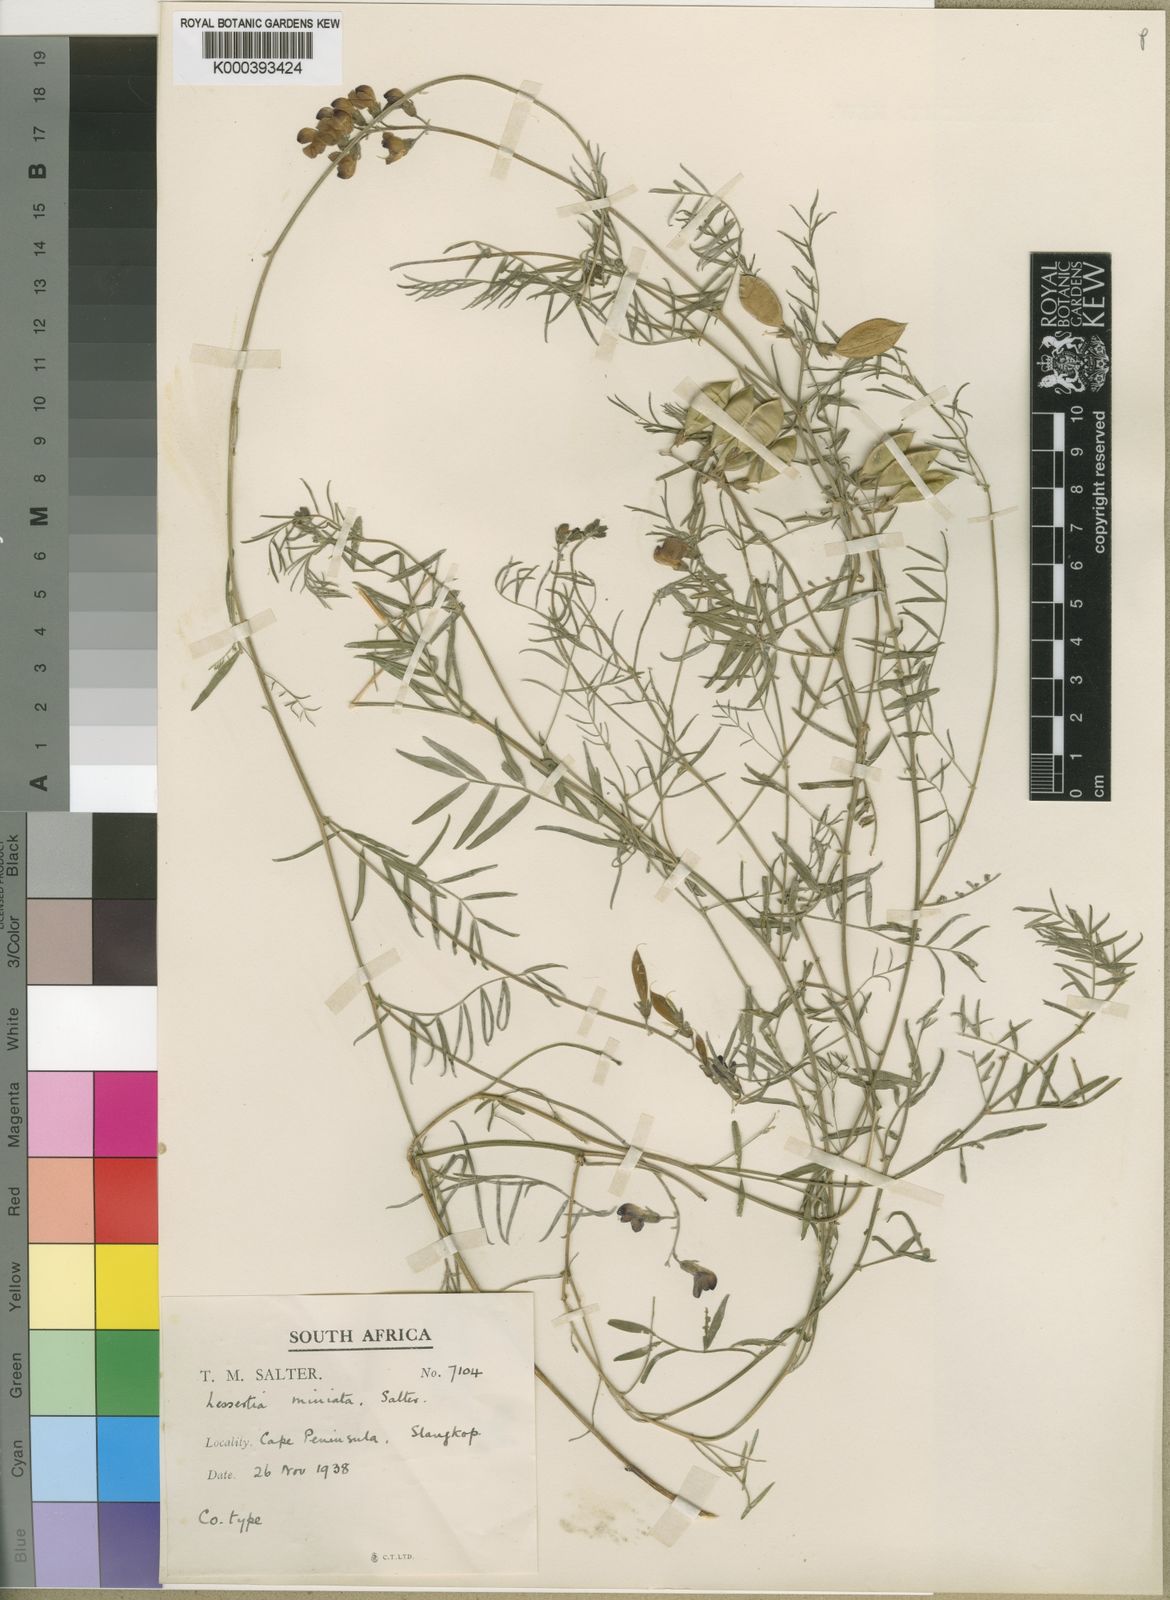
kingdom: Plantae
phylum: Tracheophyta
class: Magnoliopsida
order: Fabales
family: Fabaceae
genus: Lessertia
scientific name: Lessertia miniata
